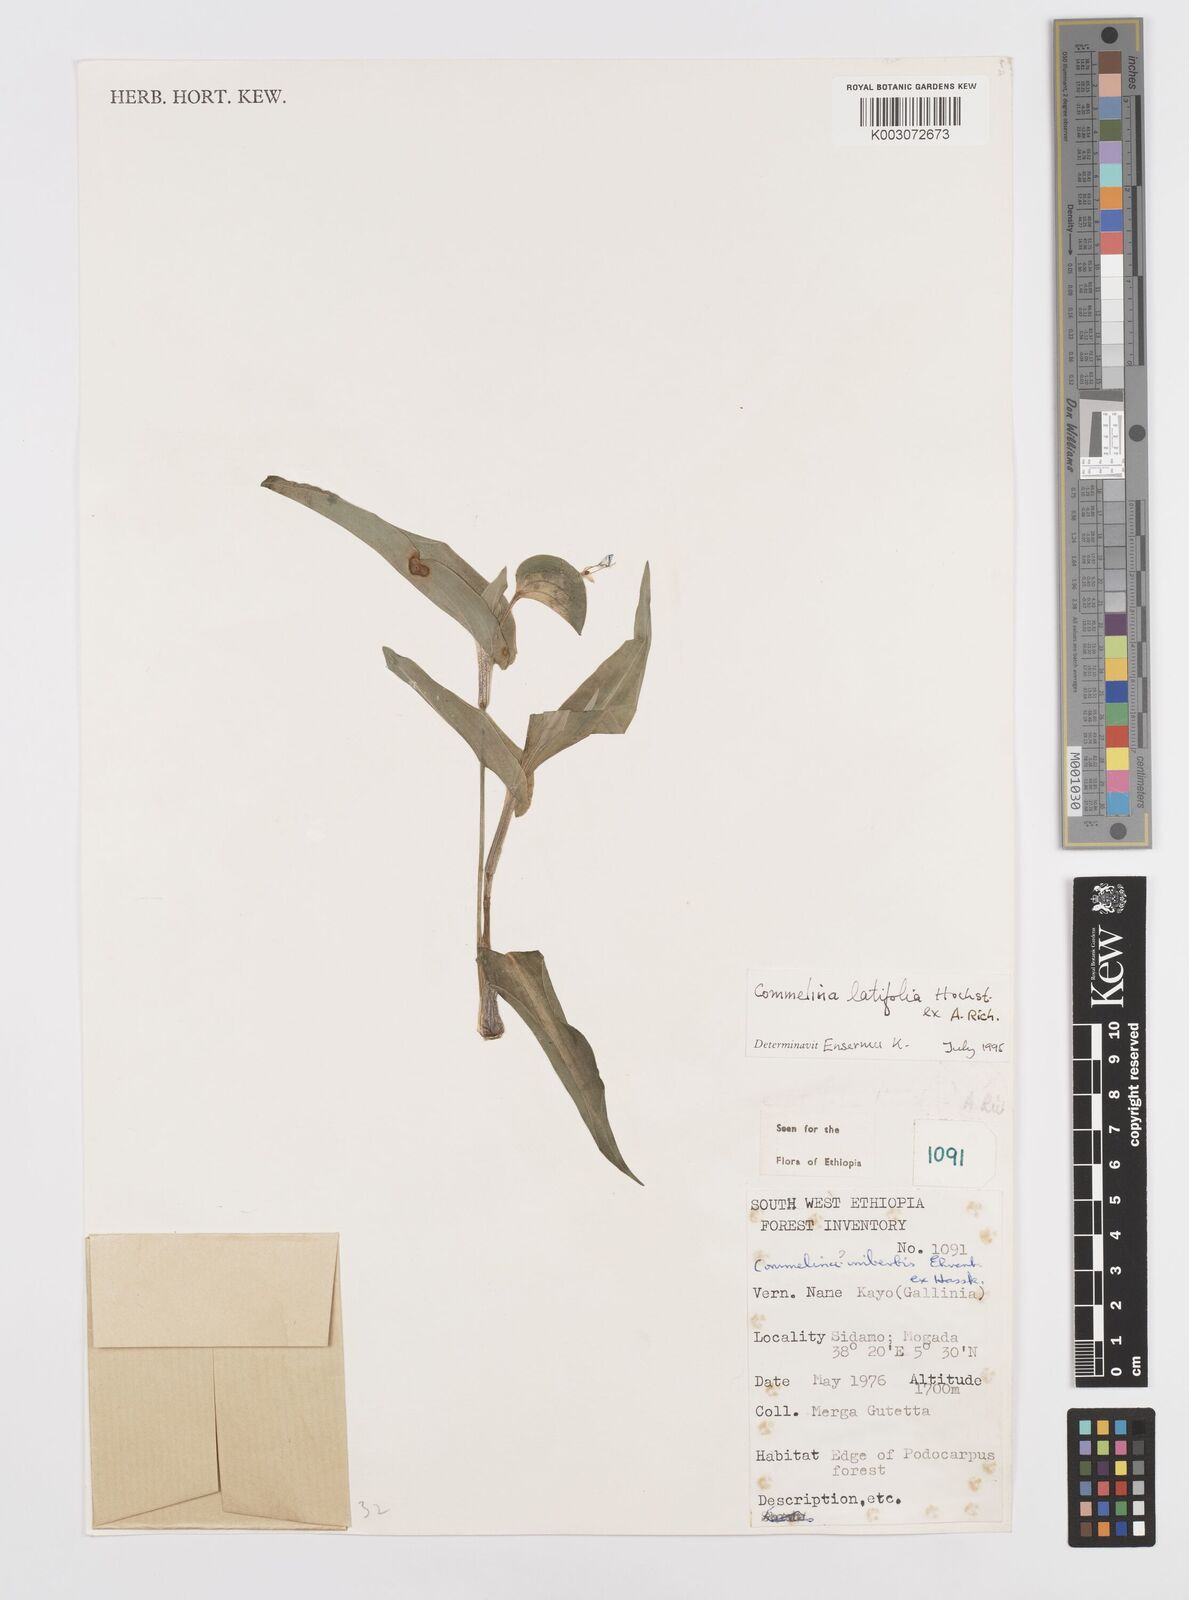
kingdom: Plantae
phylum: Tracheophyta
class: Liliopsida
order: Commelinales
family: Commelinaceae
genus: Commelina
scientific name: Commelina imberbis
